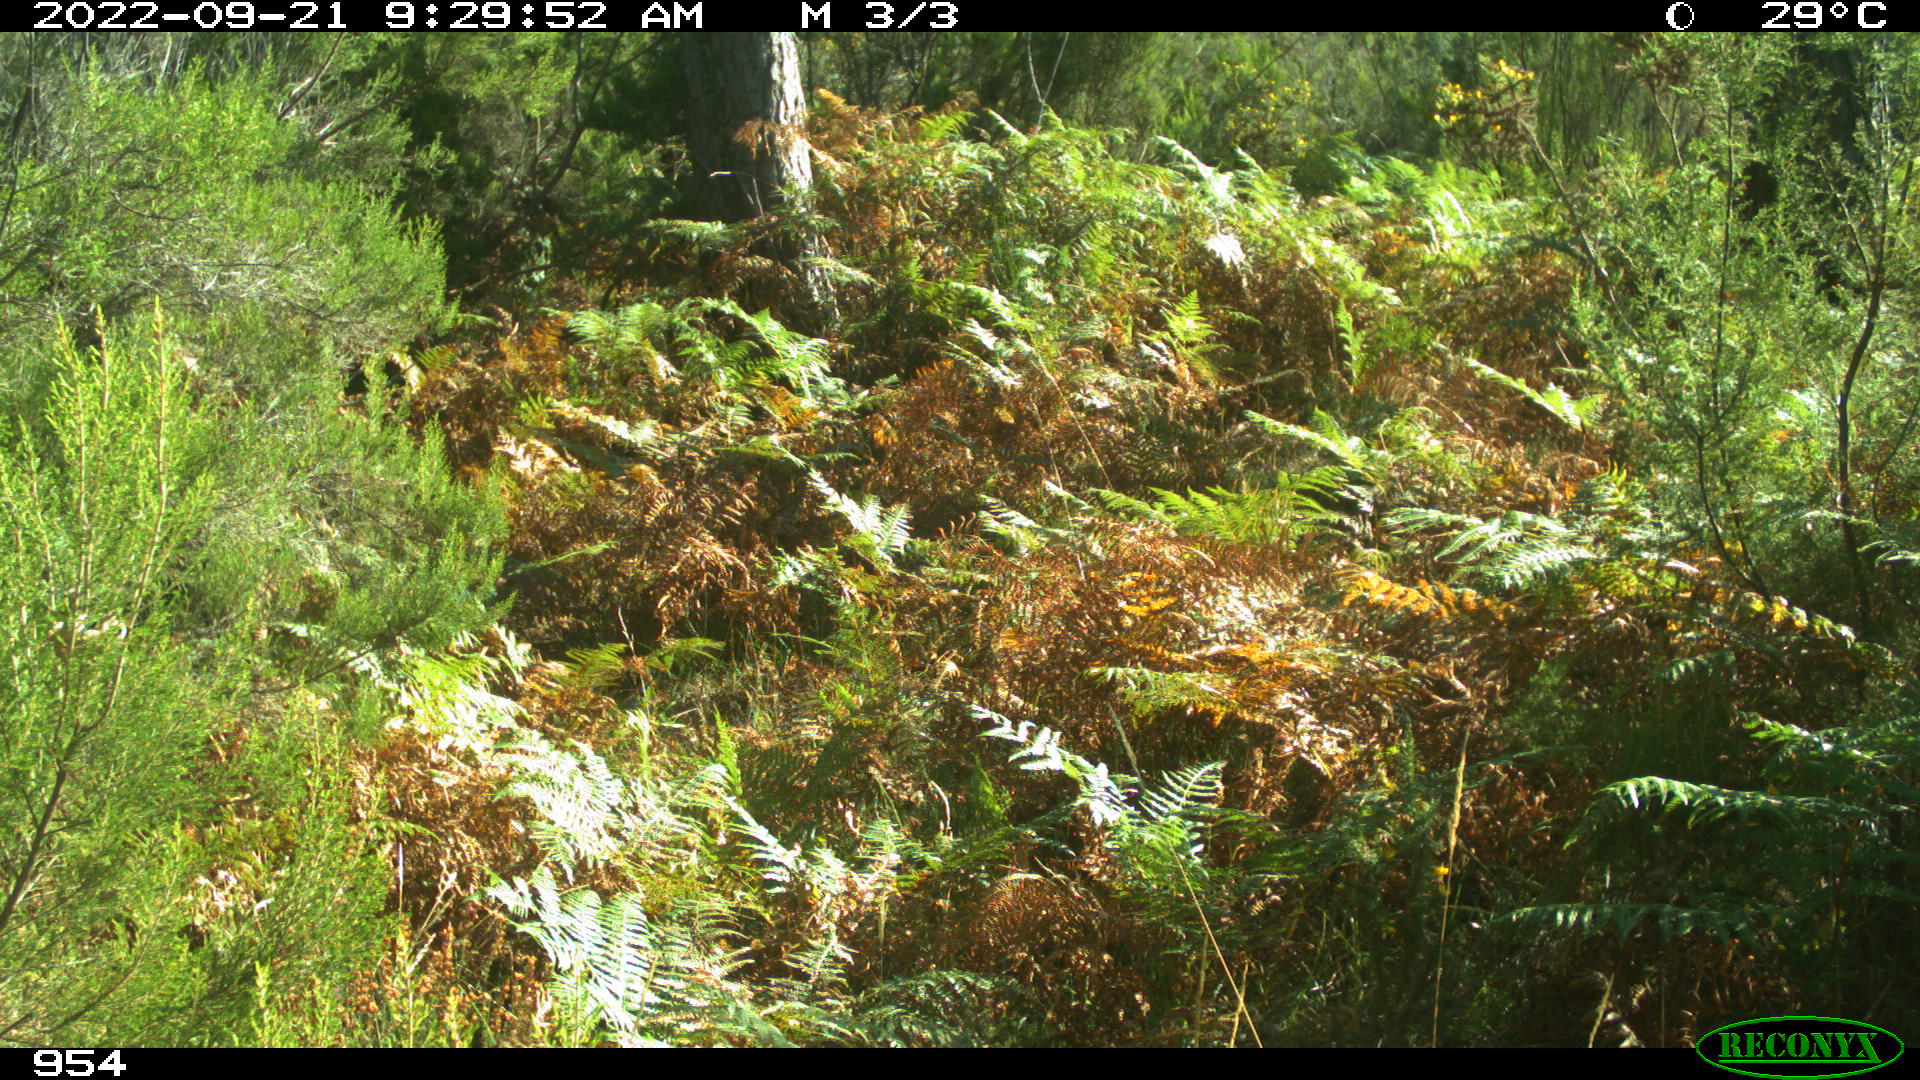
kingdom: Animalia
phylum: Chordata
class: Mammalia
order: Perissodactyla
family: Equidae
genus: Equus
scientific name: Equus caballus
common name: Horse
